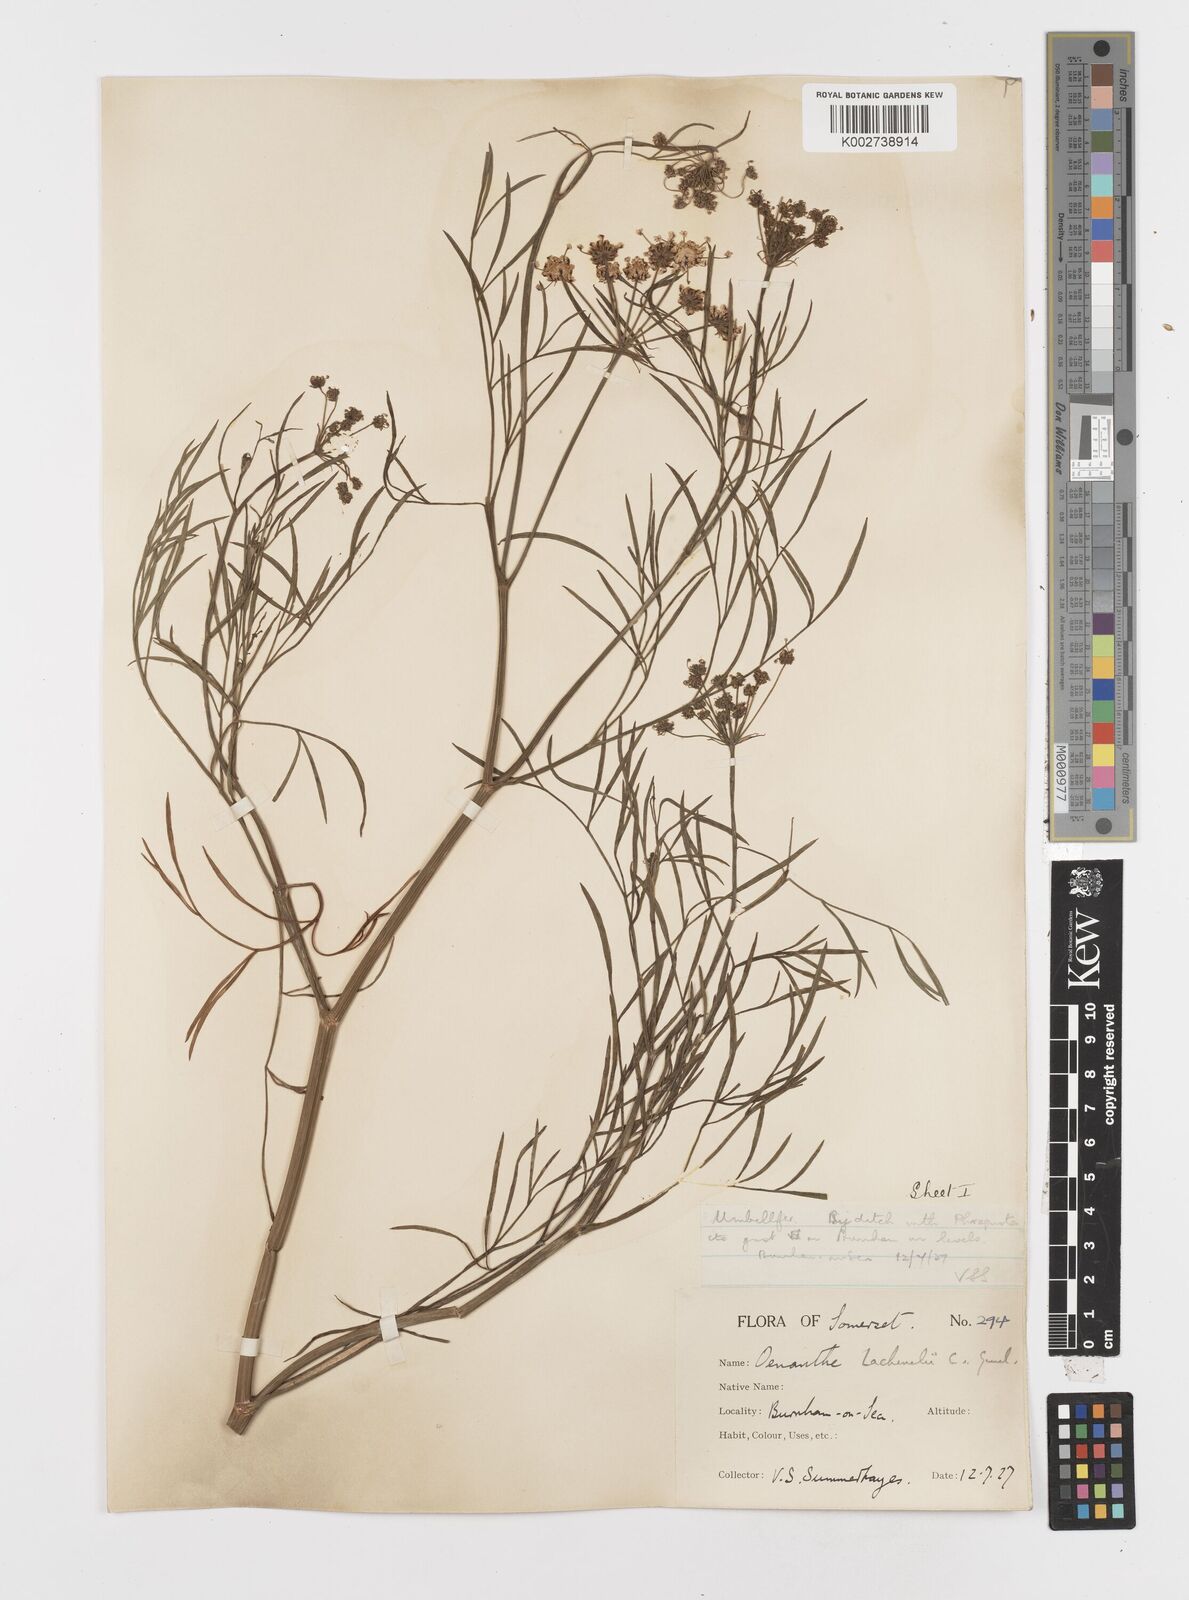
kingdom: Plantae
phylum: Tracheophyta
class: Magnoliopsida
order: Apiales
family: Apiaceae
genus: Oenanthe
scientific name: Oenanthe lachenalii
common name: Parsley water-dropwort
